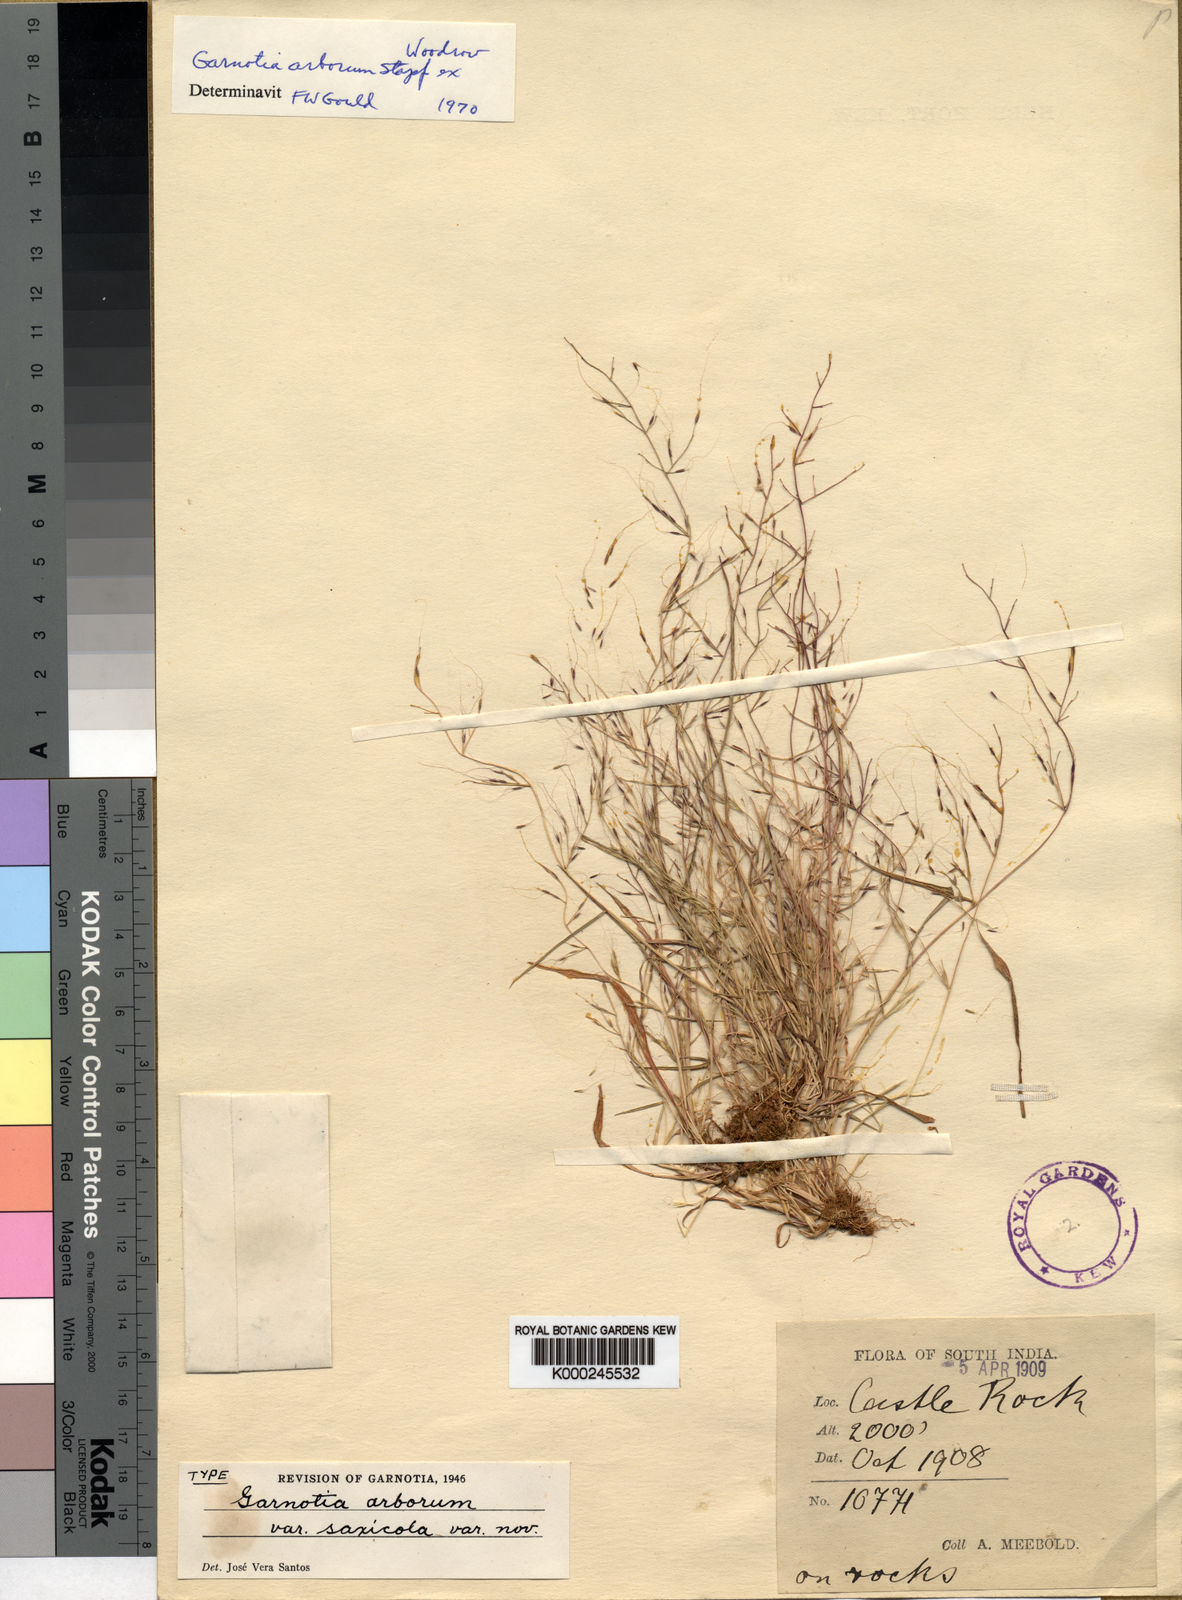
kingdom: Plantae
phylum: Tracheophyta
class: Liliopsida
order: Poales
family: Poaceae
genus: Garnotia
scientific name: Garnotia arborum
